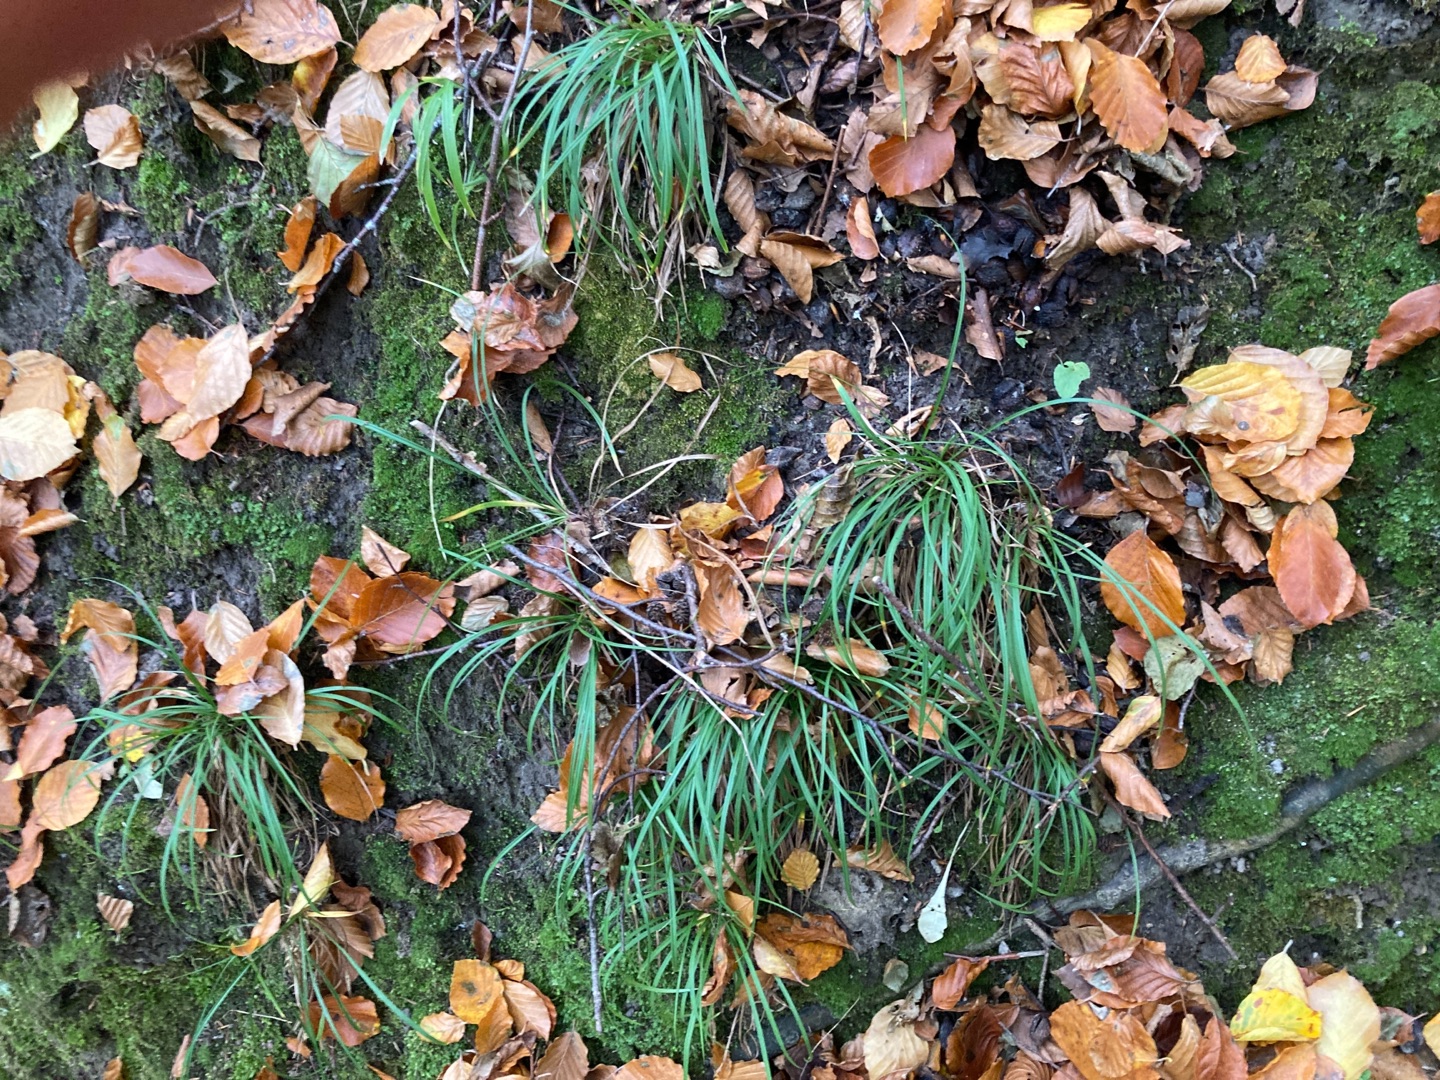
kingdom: Plantae
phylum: Tracheophyta
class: Liliopsida
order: Poales
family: Cyperaceae
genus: Carex
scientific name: Carex digitata
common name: Finger-star
